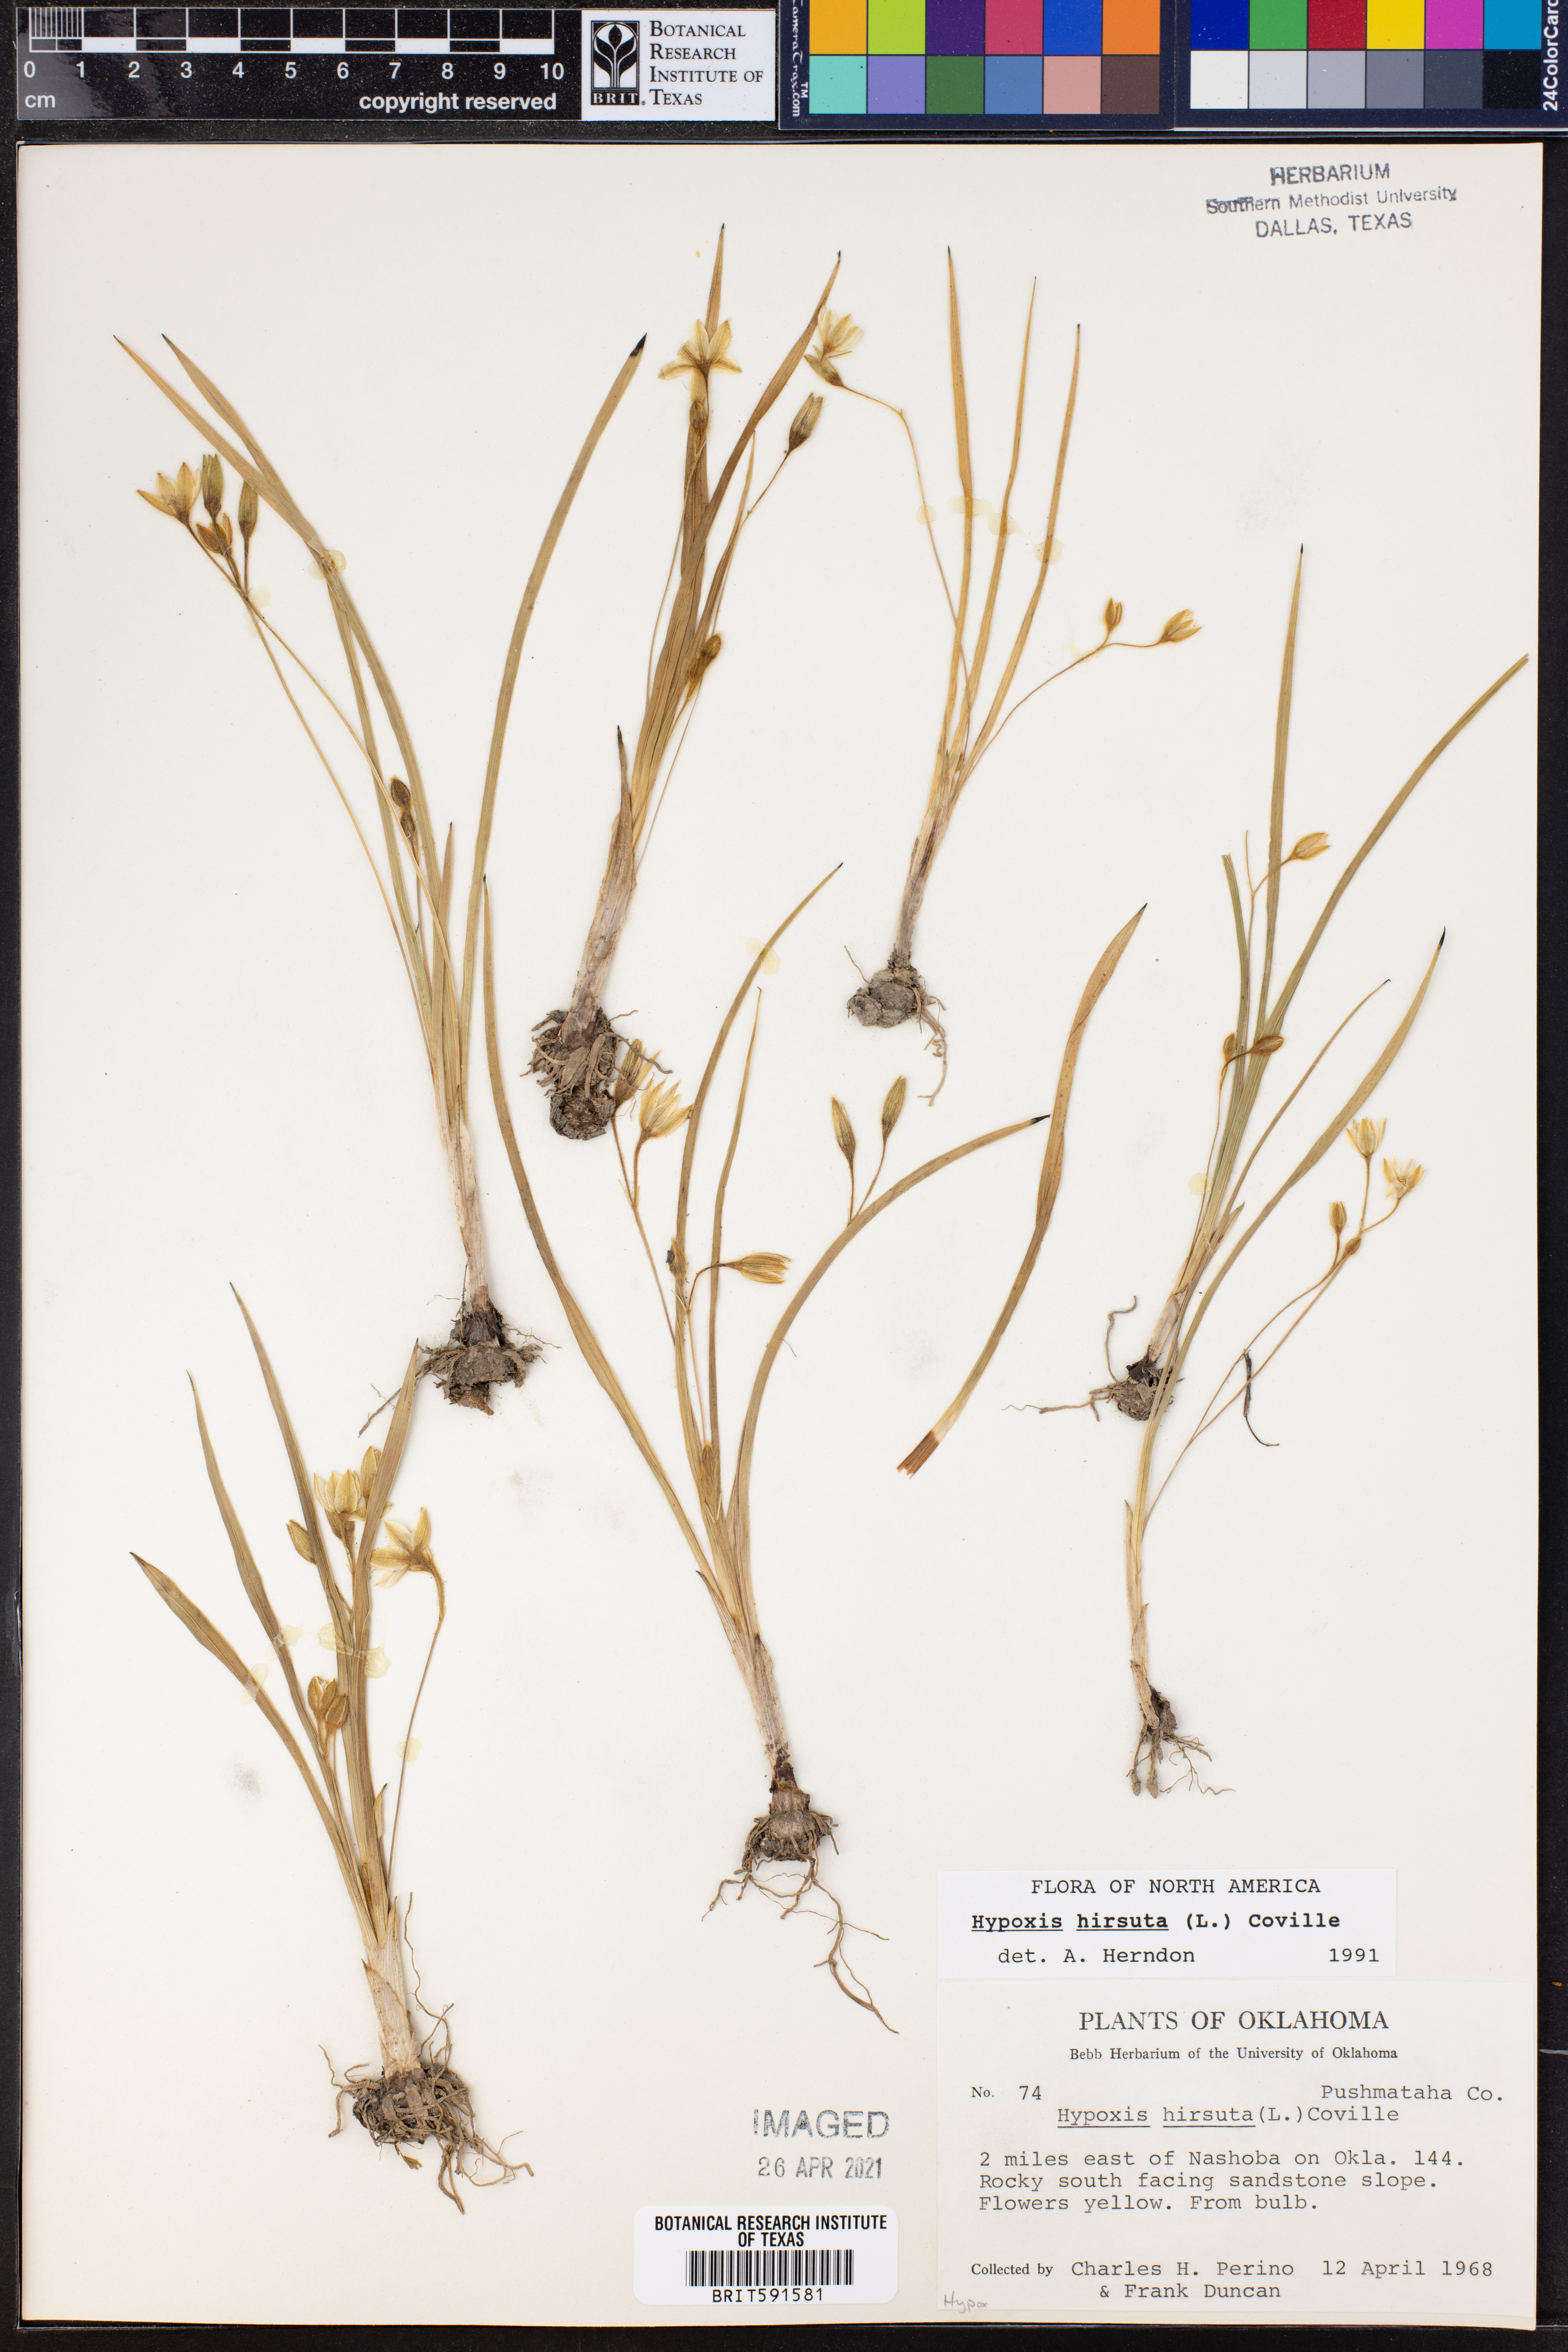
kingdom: Plantae
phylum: Tracheophyta
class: Liliopsida
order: Asparagales
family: Hypoxidaceae
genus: Hypoxis
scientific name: Hypoxis hirsuta
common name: Common goldstar
